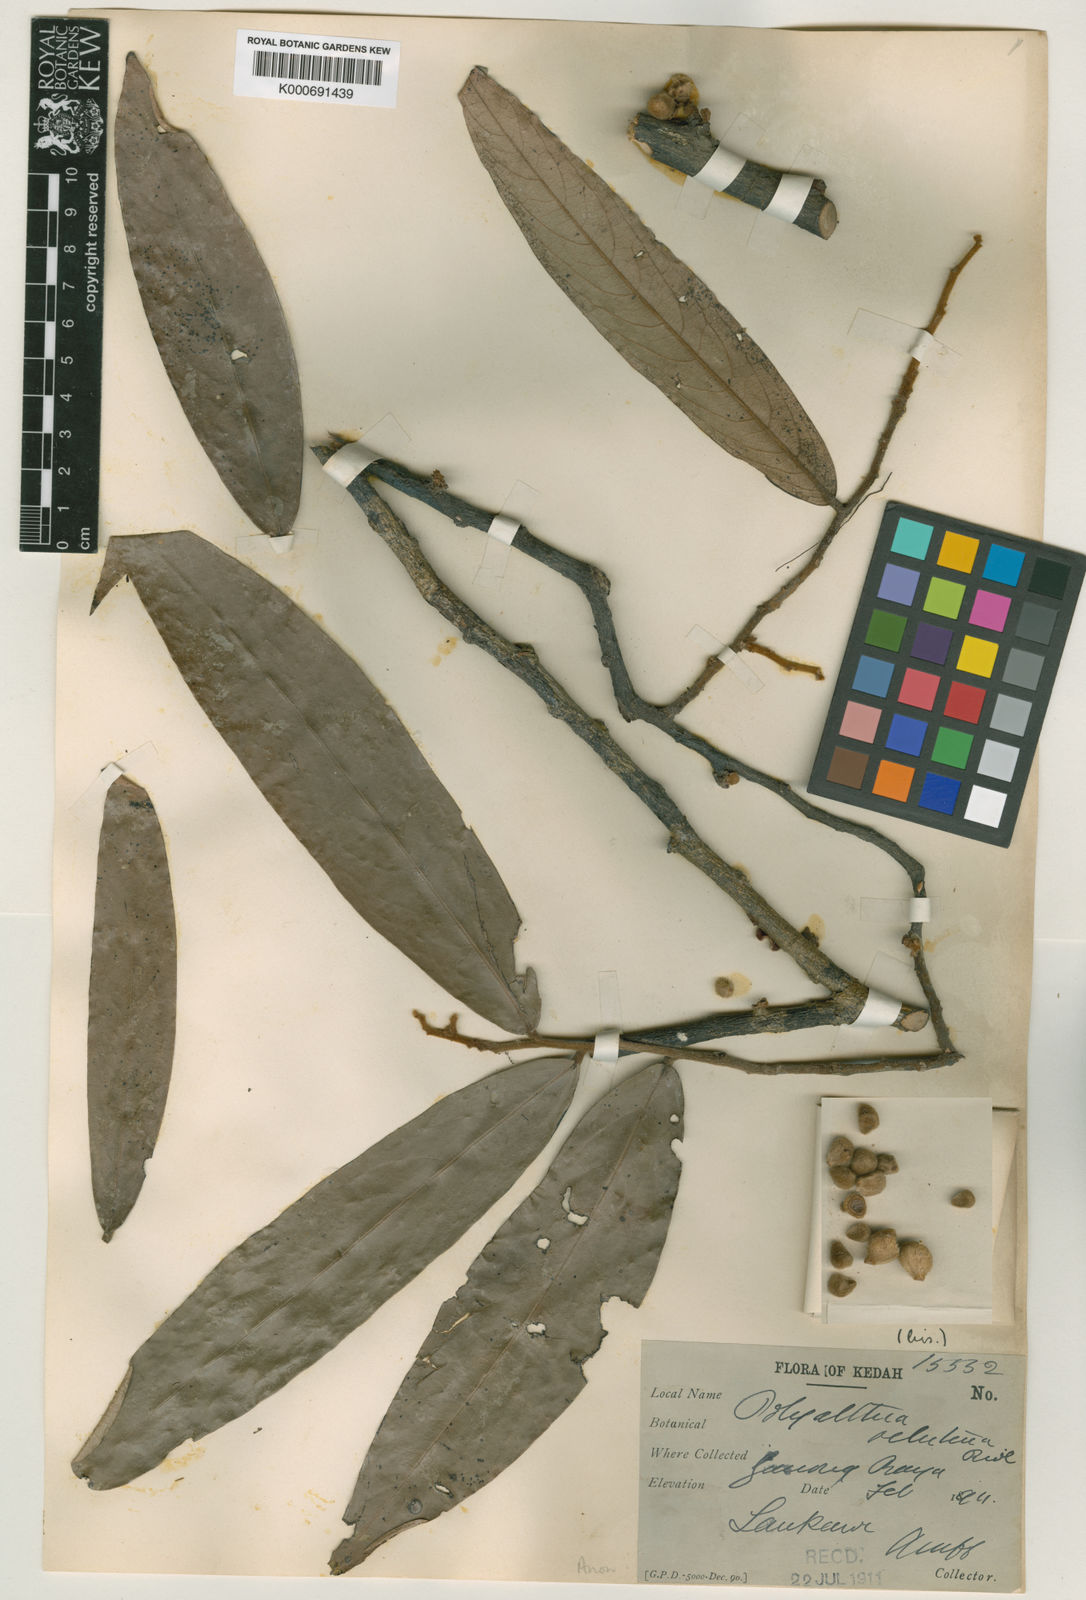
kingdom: Plantae
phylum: Tracheophyta
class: Magnoliopsida
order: Magnoliales
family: Annonaceae
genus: Polyalthia
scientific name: Polyalthia cinnamomea
